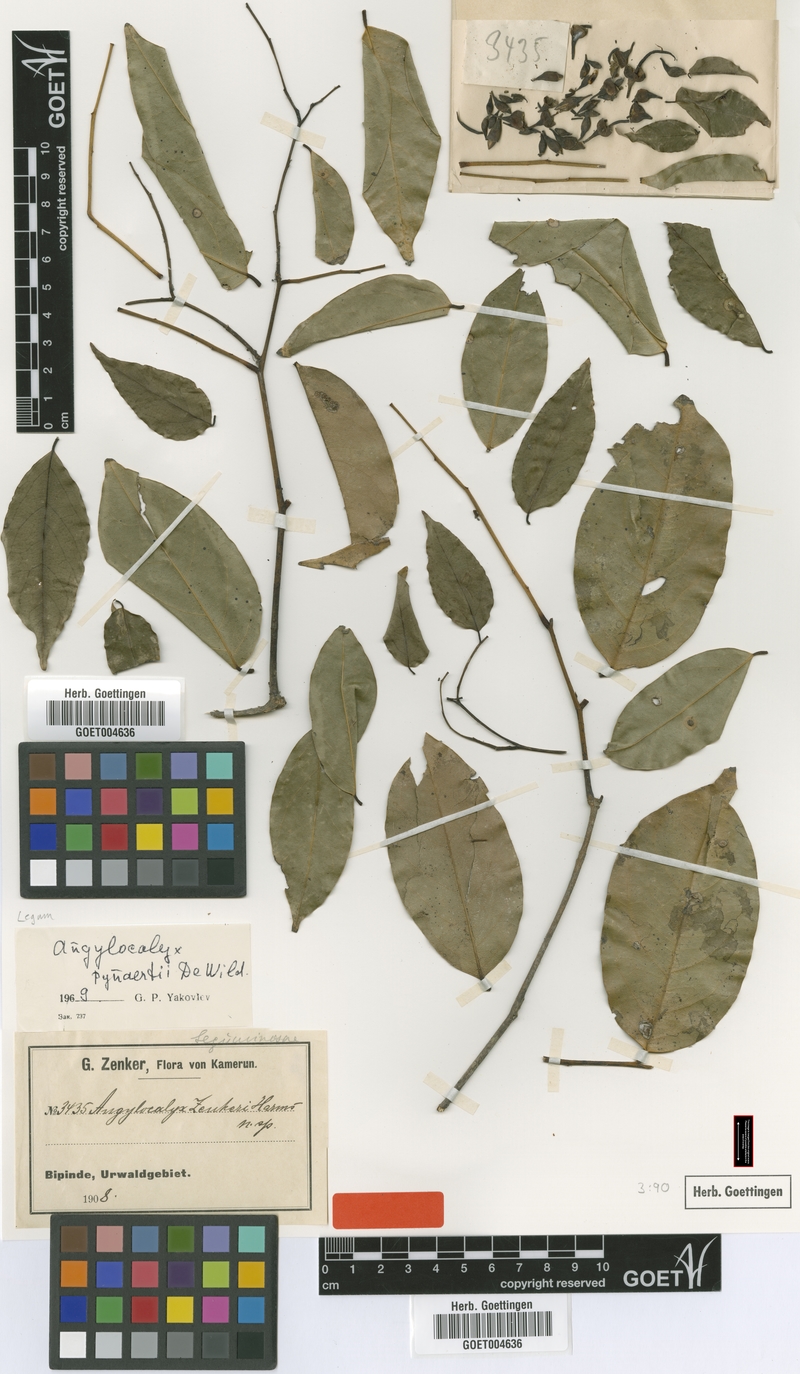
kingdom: Plantae
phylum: Tracheophyta
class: Magnoliopsida
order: Fabales
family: Fabaceae
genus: Angylocalyx
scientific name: Angylocalyx pynaertii
